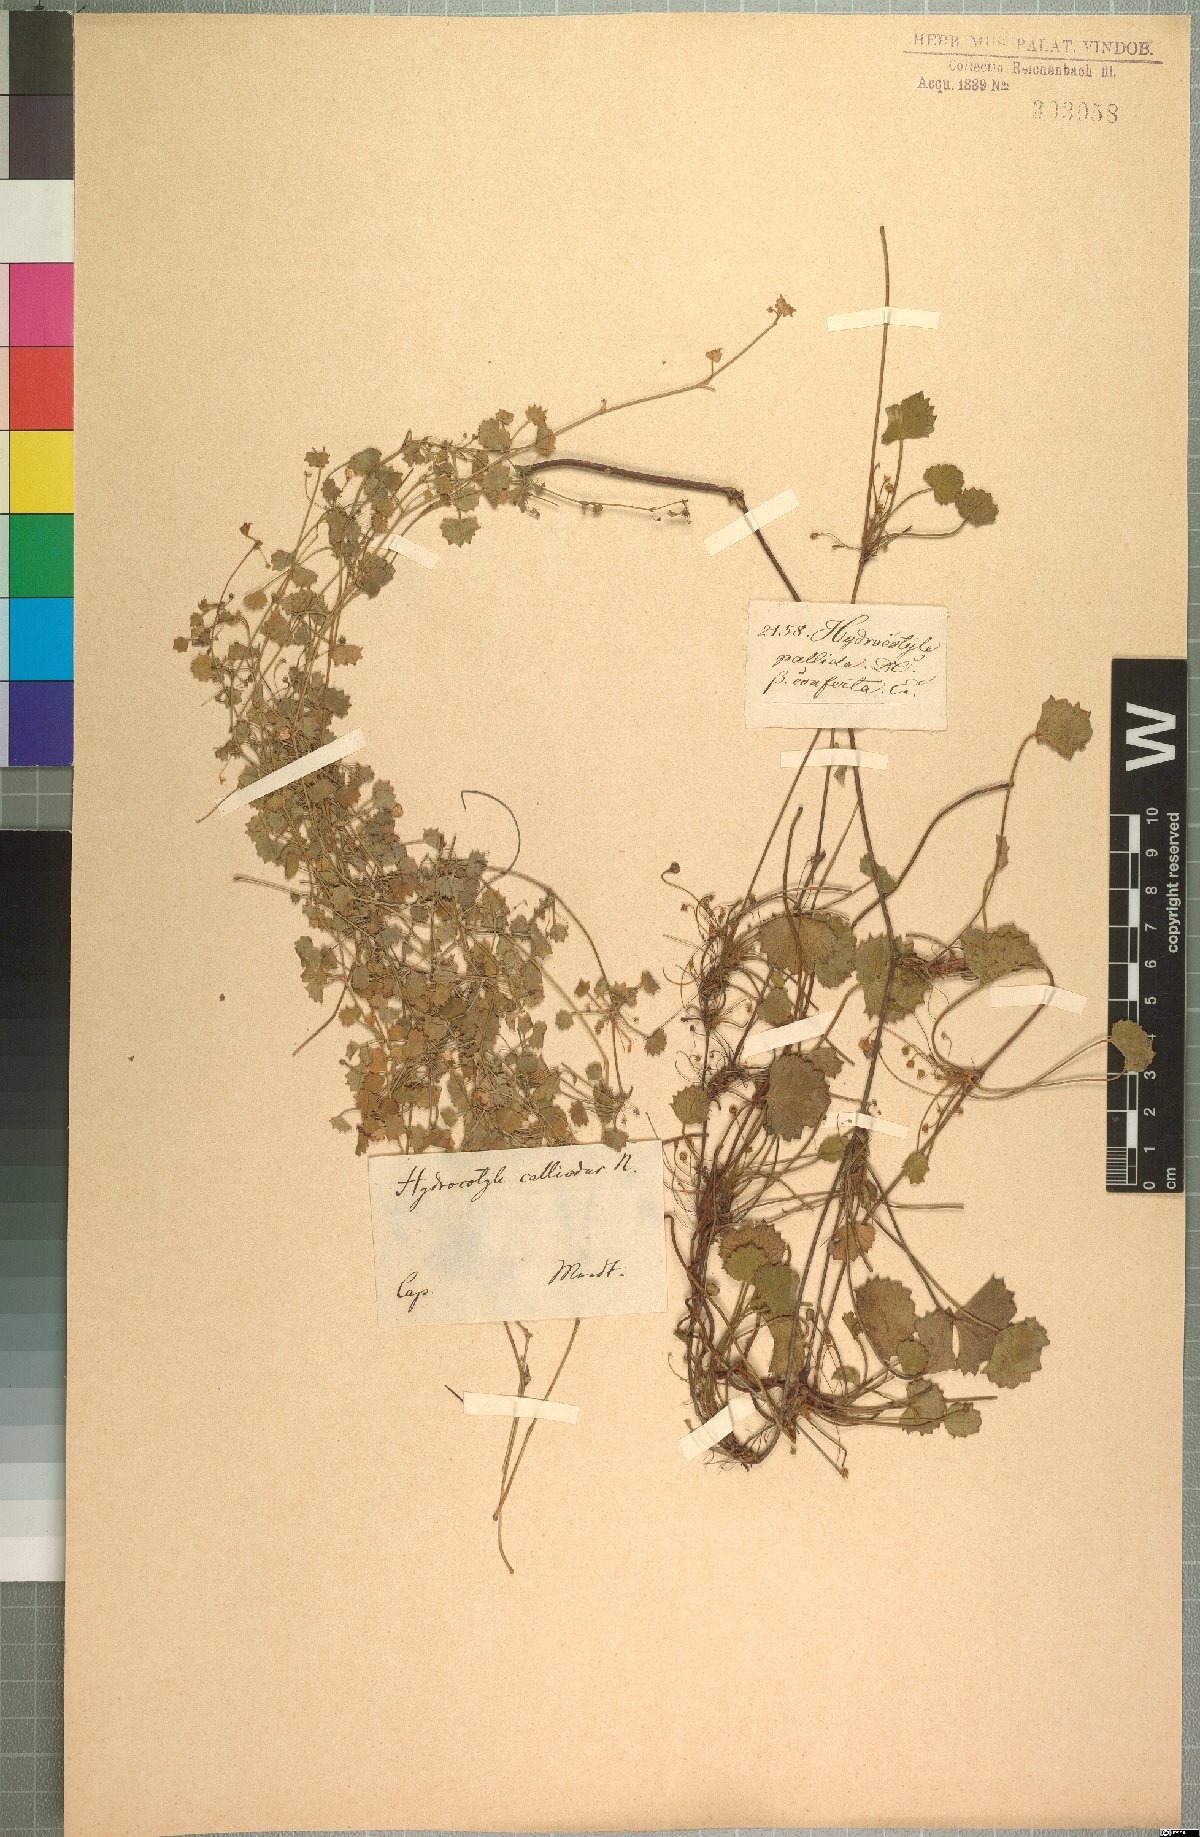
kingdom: Plantae
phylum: Tracheophyta
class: Magnoliopsida
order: Apiales
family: Apiaceae
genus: Centella
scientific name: Centella callioda
